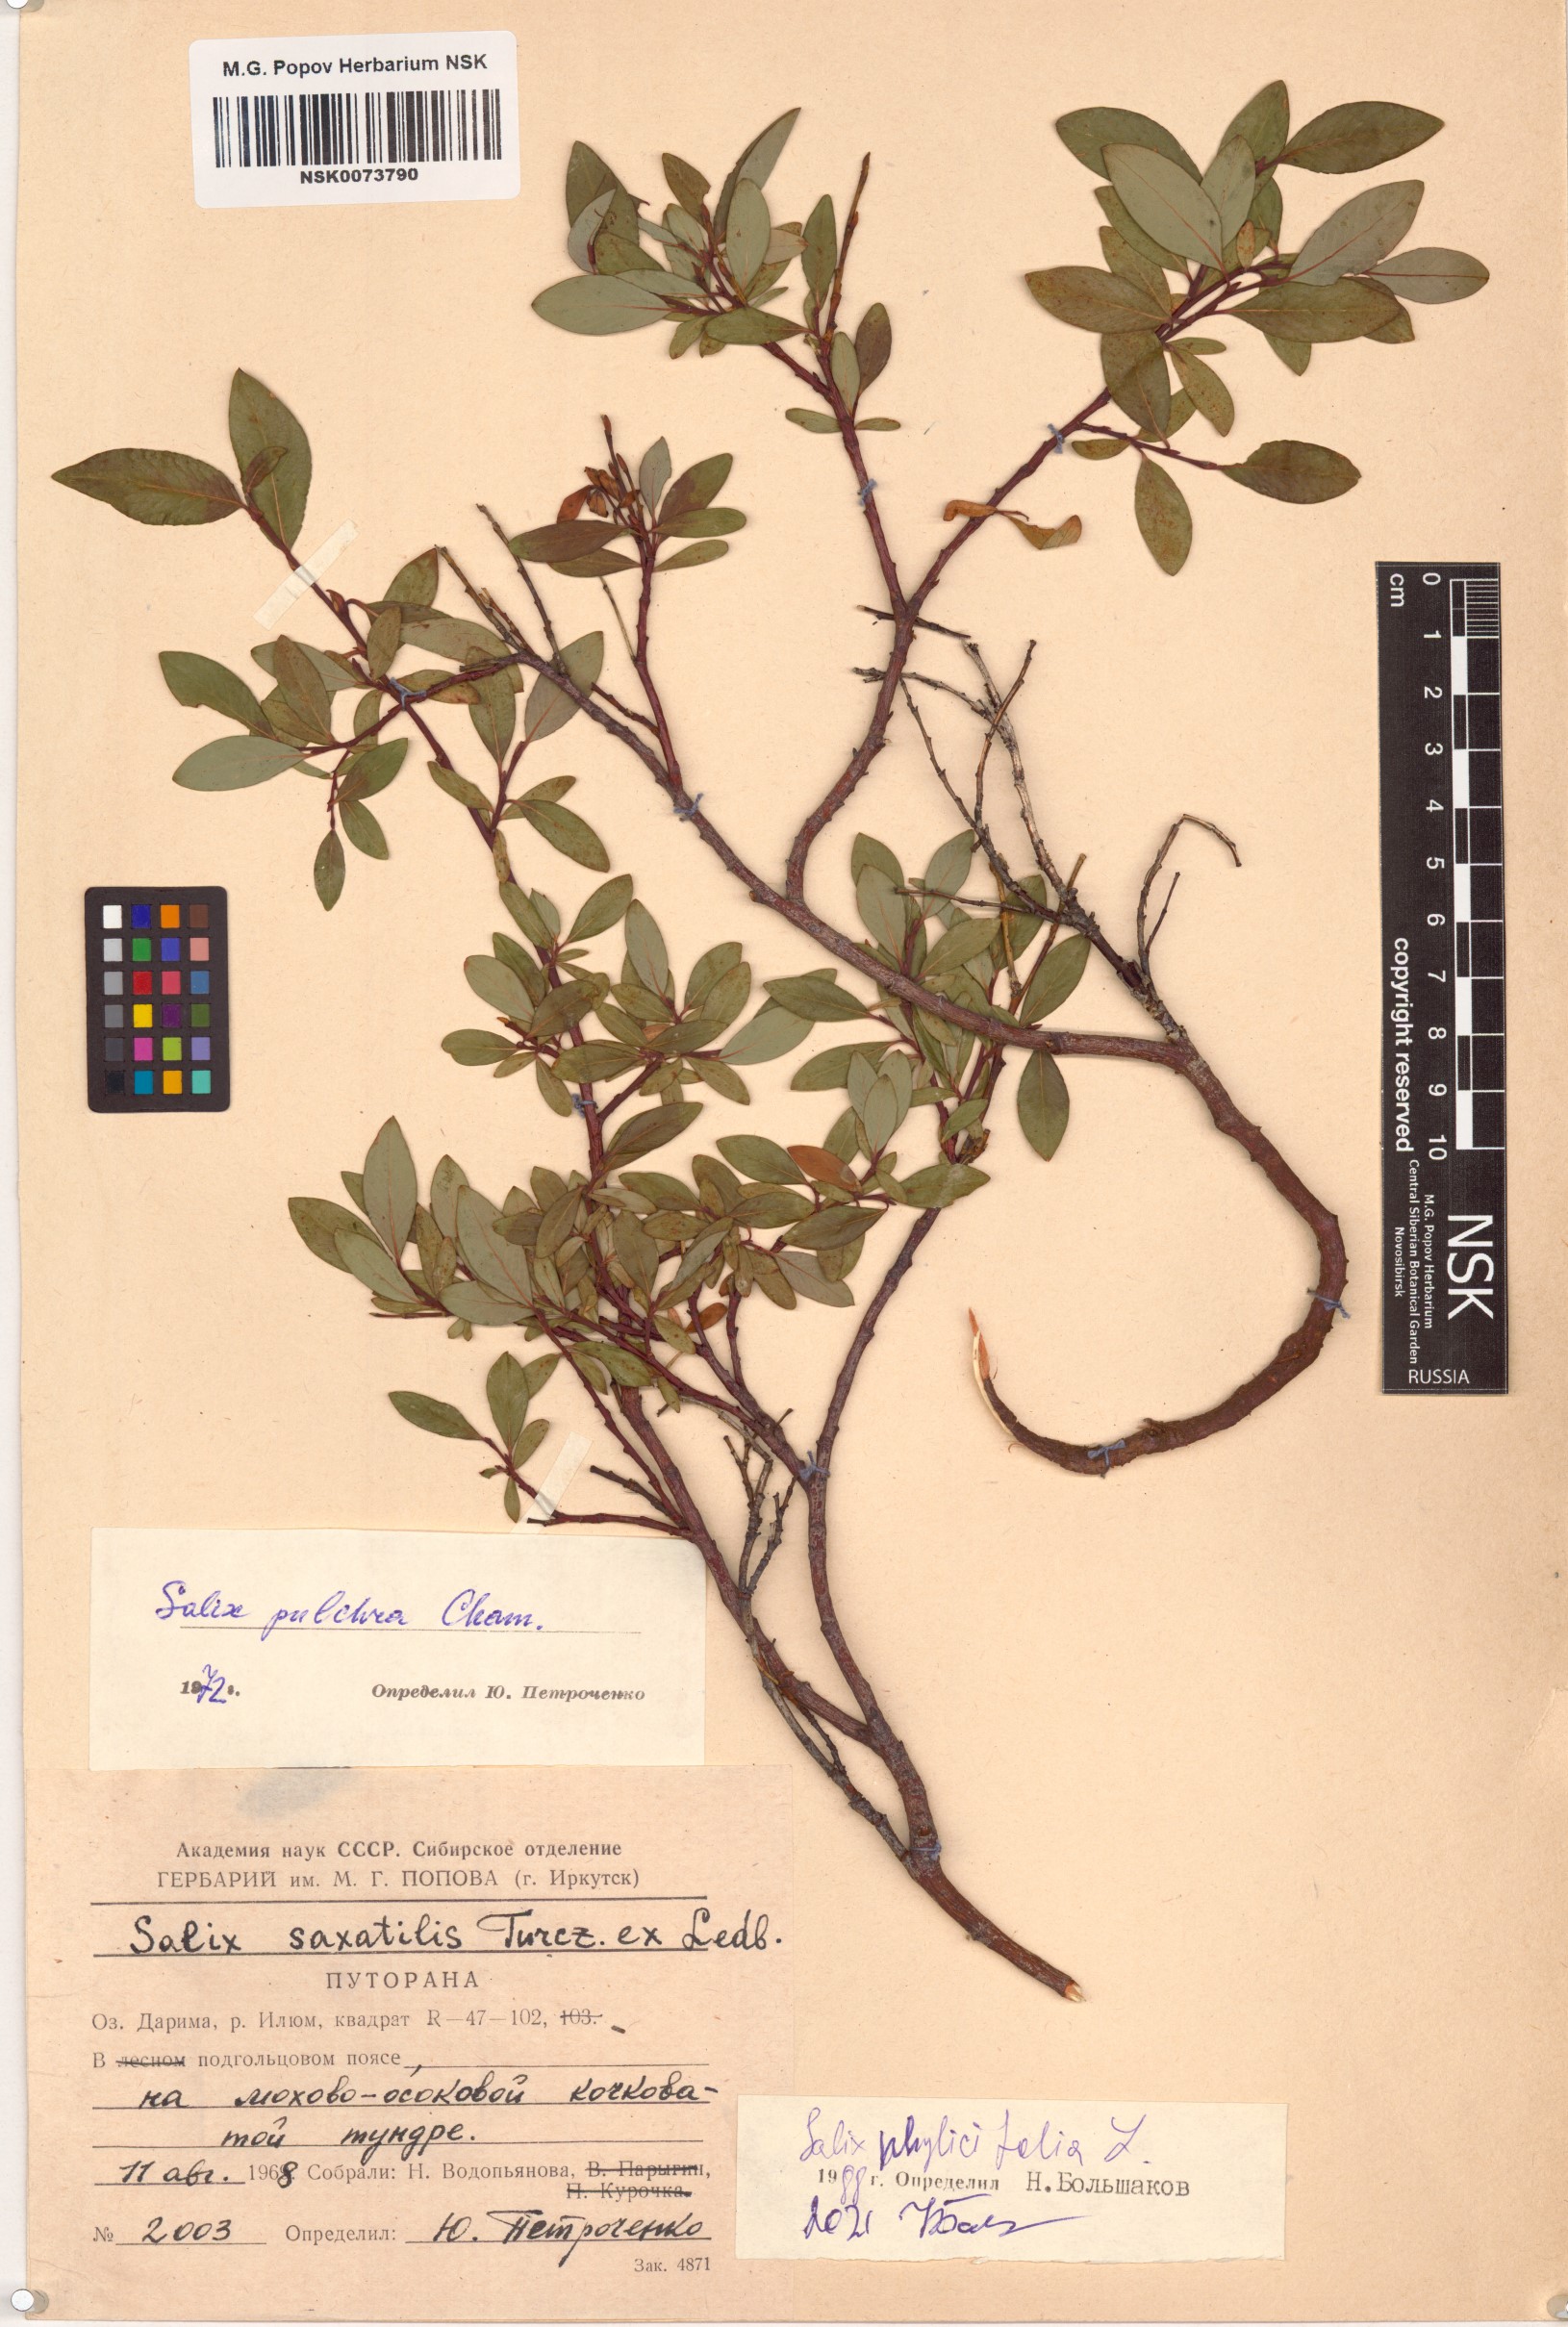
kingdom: Plantae
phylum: Tracheophyta
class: Magnoliopsida
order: Malpighiales
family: Salicaceae
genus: Salix
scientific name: Salix phylicifolia
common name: Tea-leaved willow
